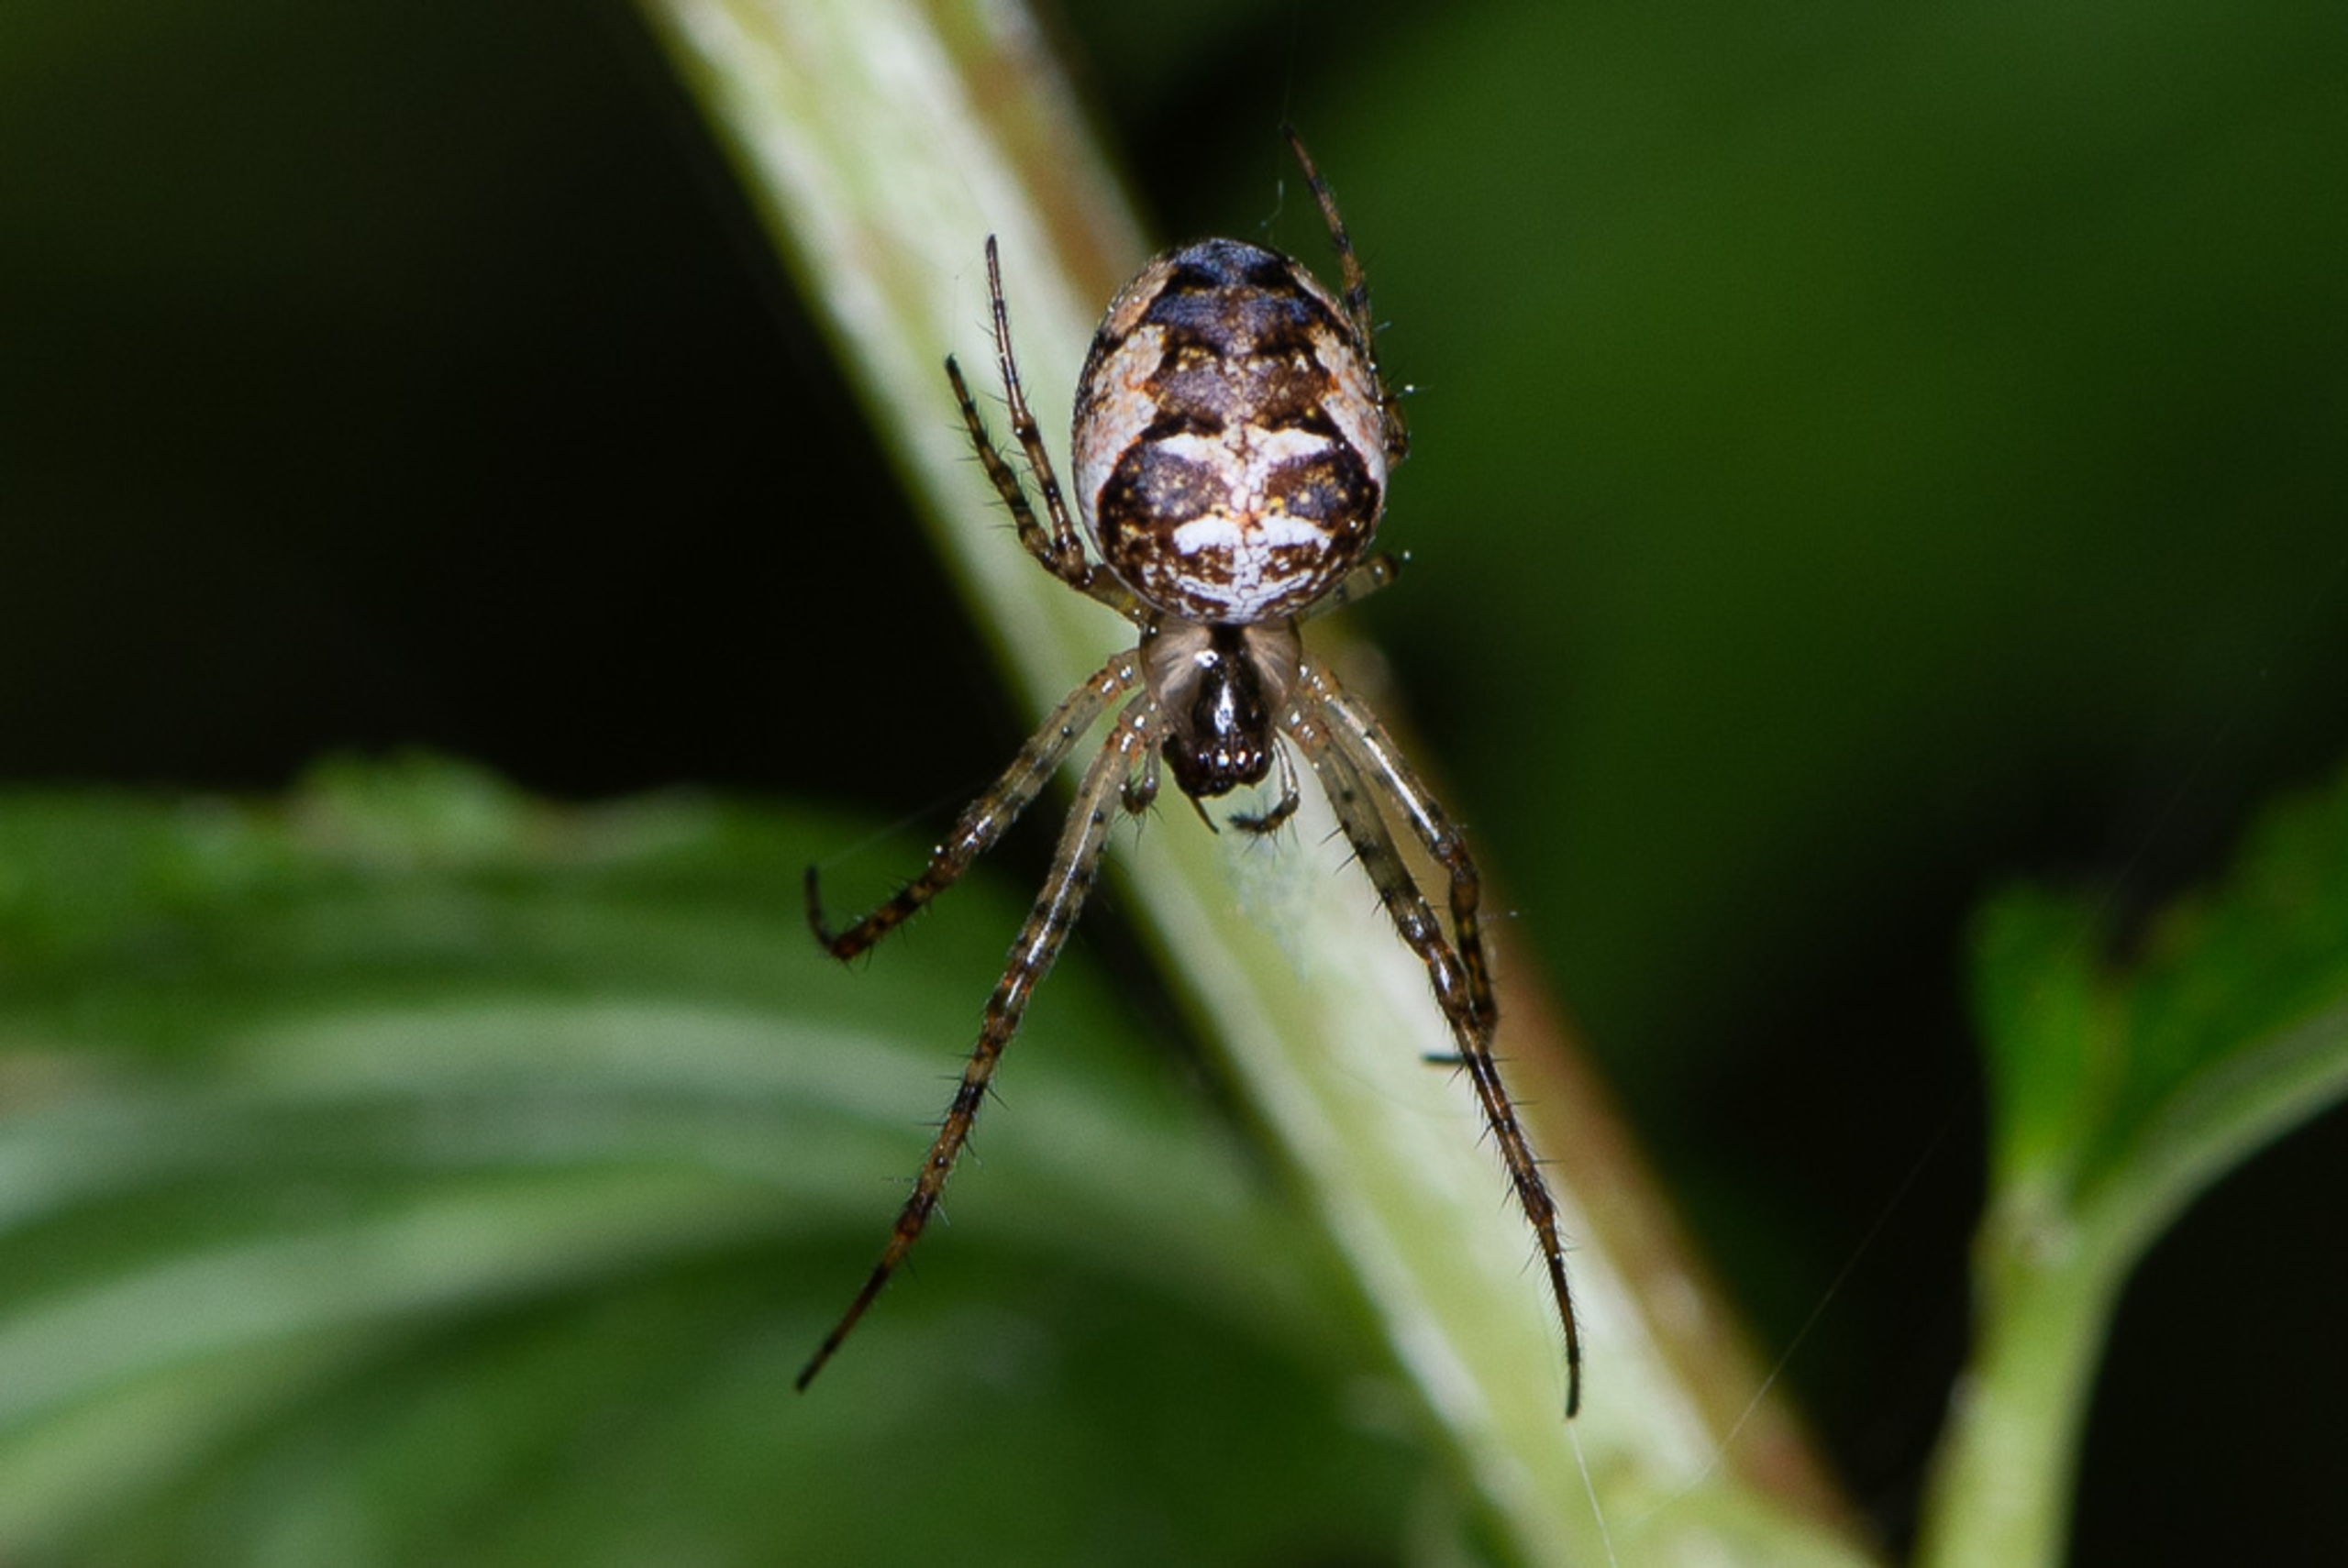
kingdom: Animalia
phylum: Arthropoda
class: Arachnida
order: Araneae
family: Tetragnathidae
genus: Metellina
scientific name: Metellina
